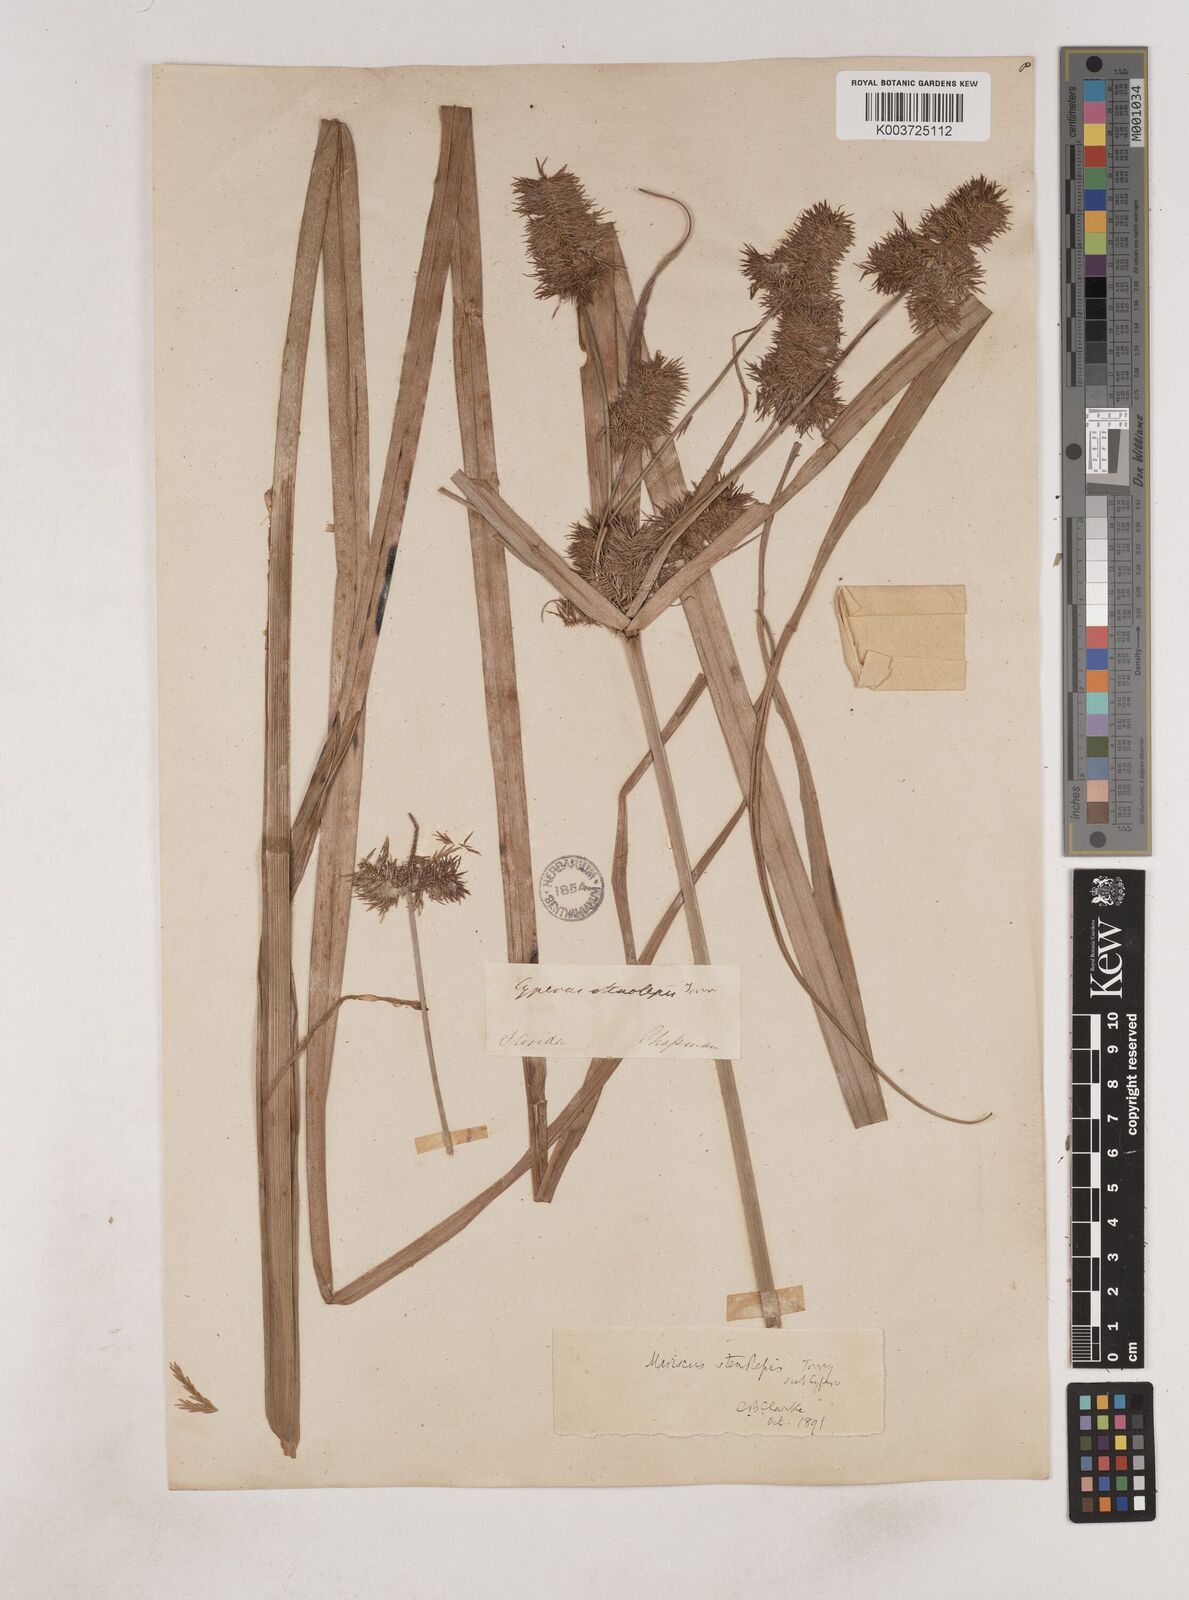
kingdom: Plantae
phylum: Tracheophyta
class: Liliopsida
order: Poales
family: Cyperaceae
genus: Cyperus
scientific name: Cyperus strigosus
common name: False nutsedge
